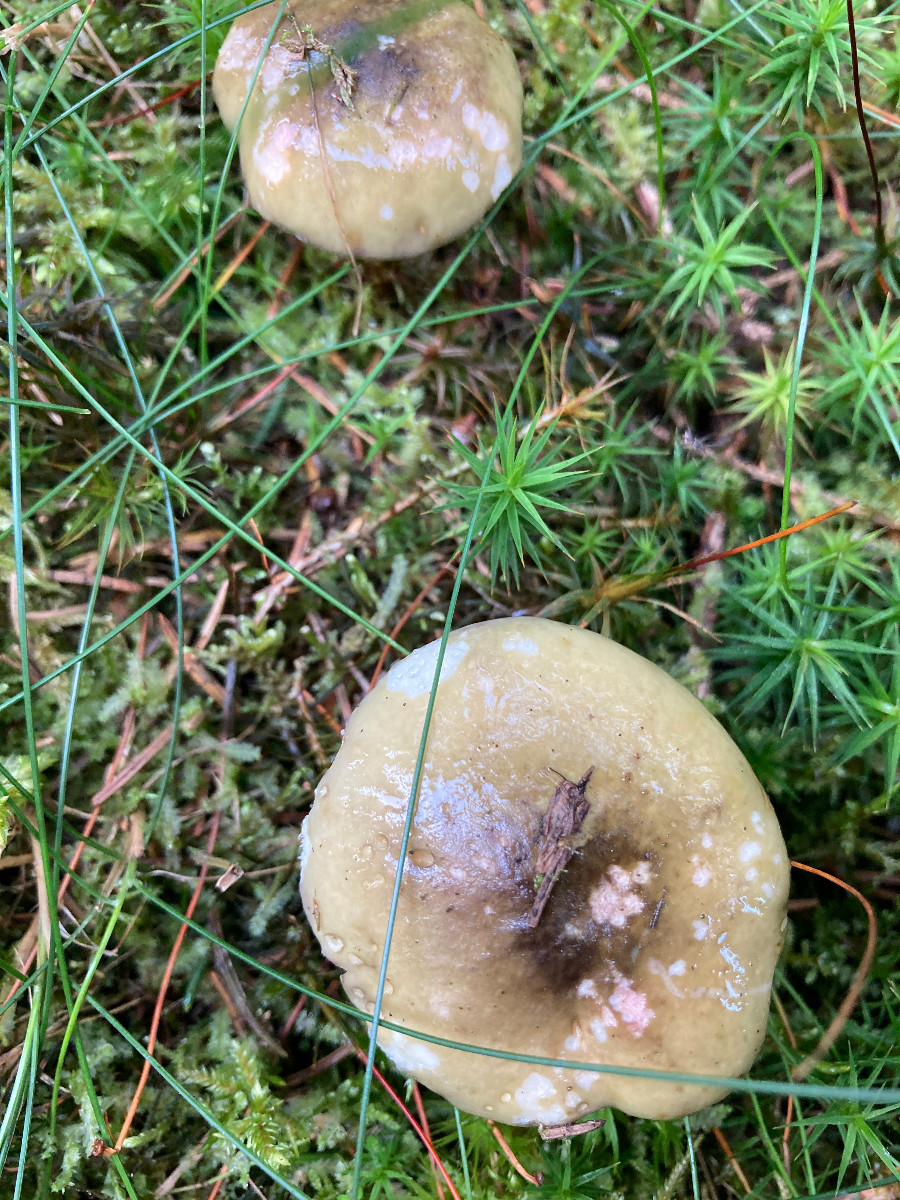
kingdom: Fungi
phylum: Basidiomycota
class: Agaricomycetes
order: Russulales
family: Russulaceae
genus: Russula
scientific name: Russula sardonia
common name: citronbladet skørhat
